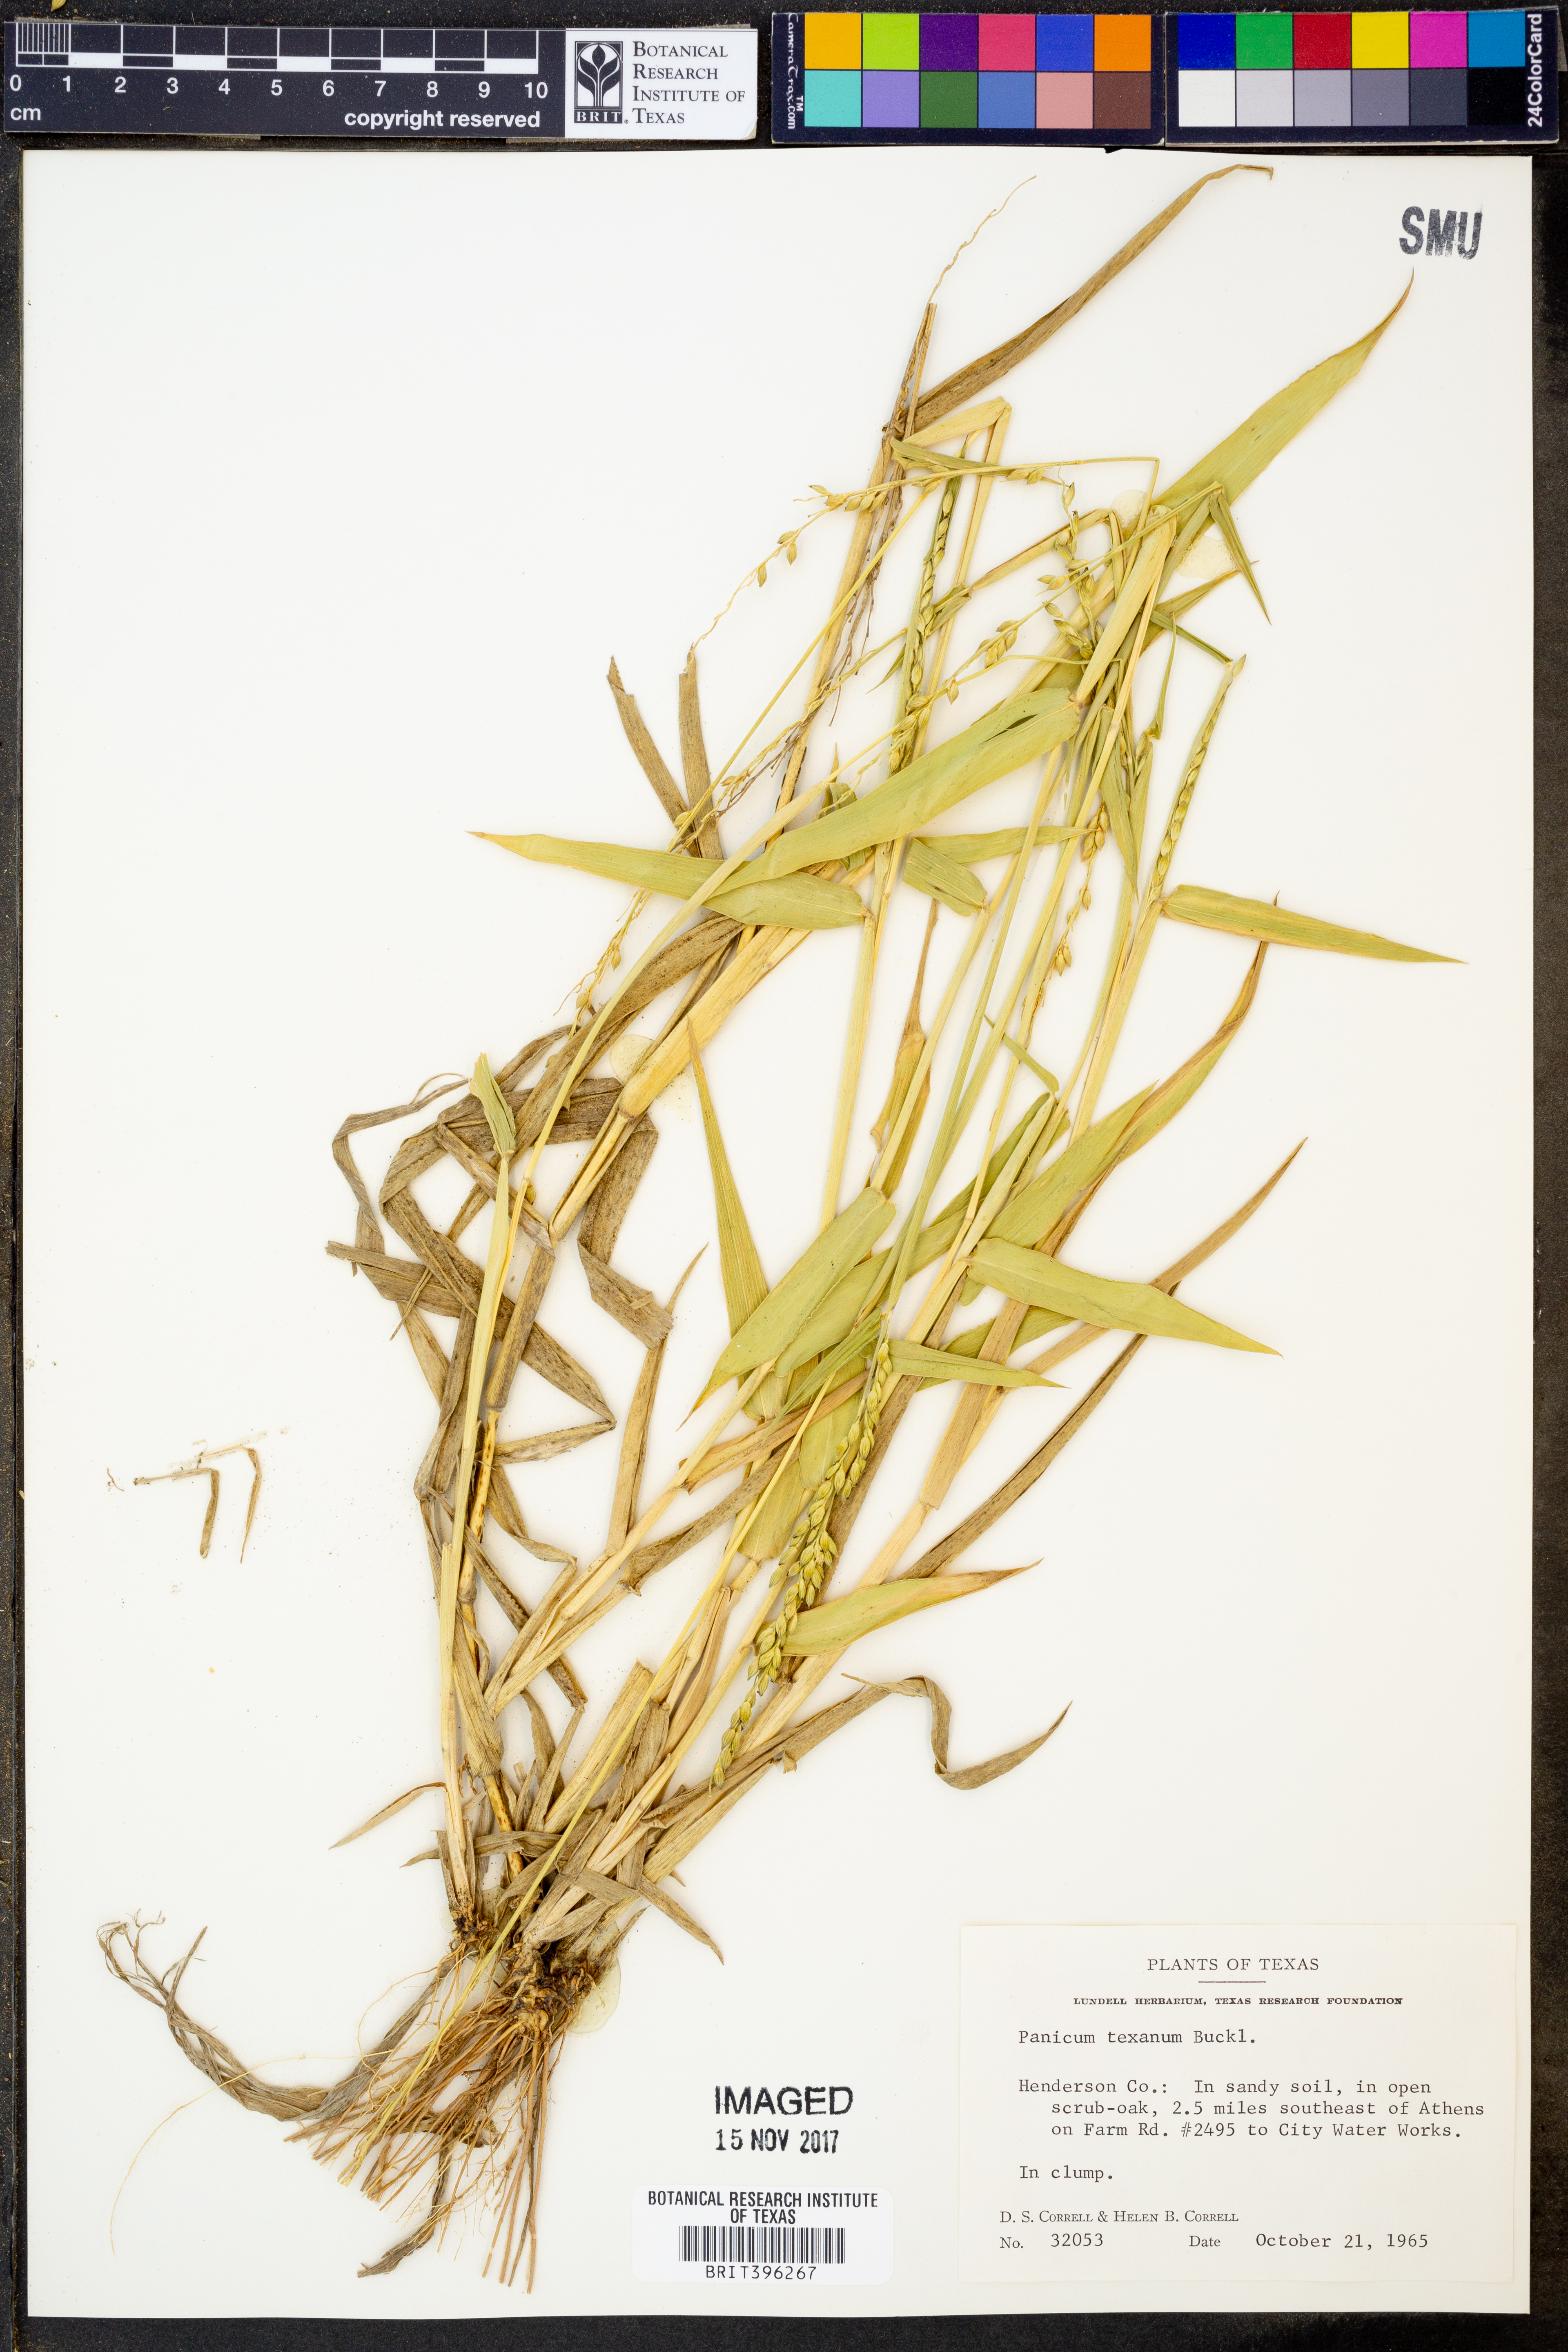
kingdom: Plantae
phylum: Tracheophyta
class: Liliopsida
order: Poales
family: Poaceae
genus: Urochloa
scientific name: Urochloa texana
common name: Texas millet
